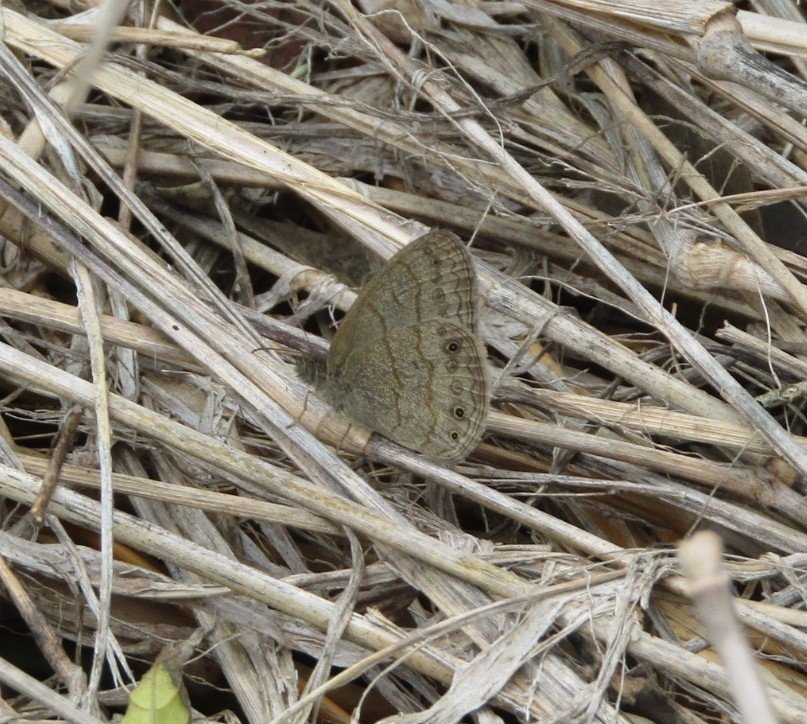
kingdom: Animalia
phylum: Arthropoda
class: Insecta
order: Lepidoptera
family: Nymphalidae
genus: Hermeuptychia
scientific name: Hermeuptychia hermybius
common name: South Texas Satyr
